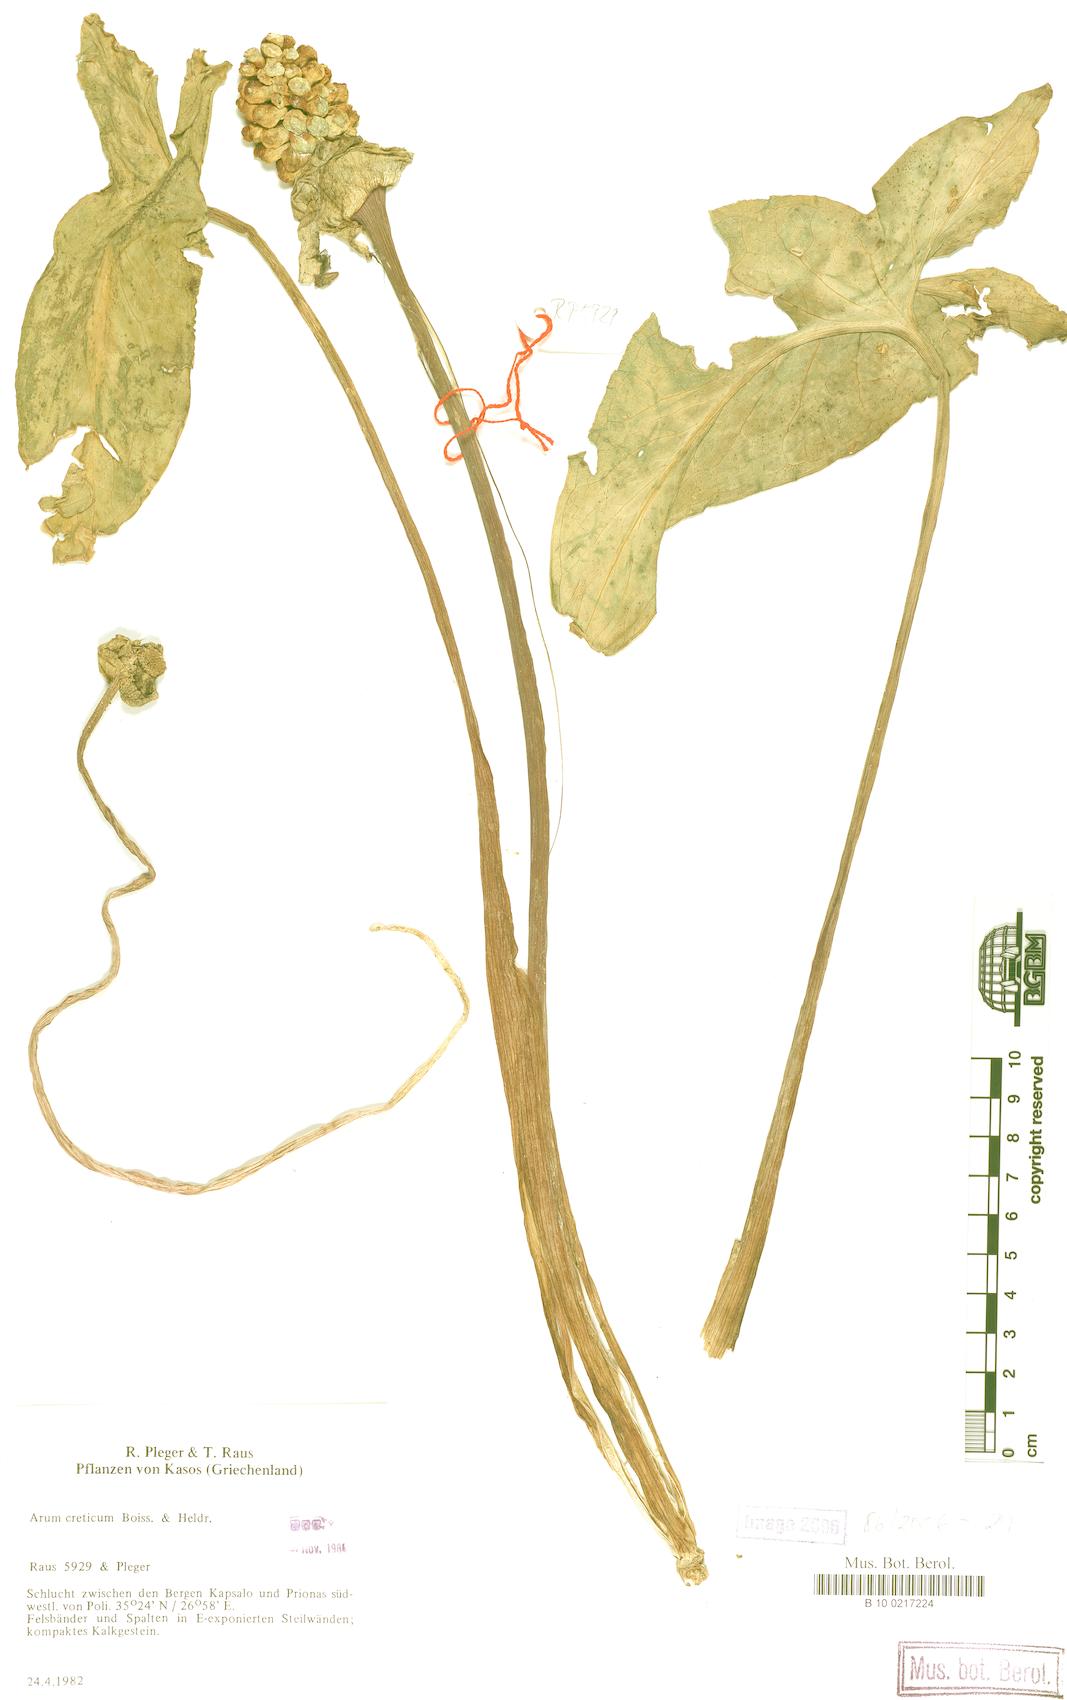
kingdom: Plantae
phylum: Tracheophyta
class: Liliopsida
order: Alismatales
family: Araceae
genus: Arum
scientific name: Arum creticum
